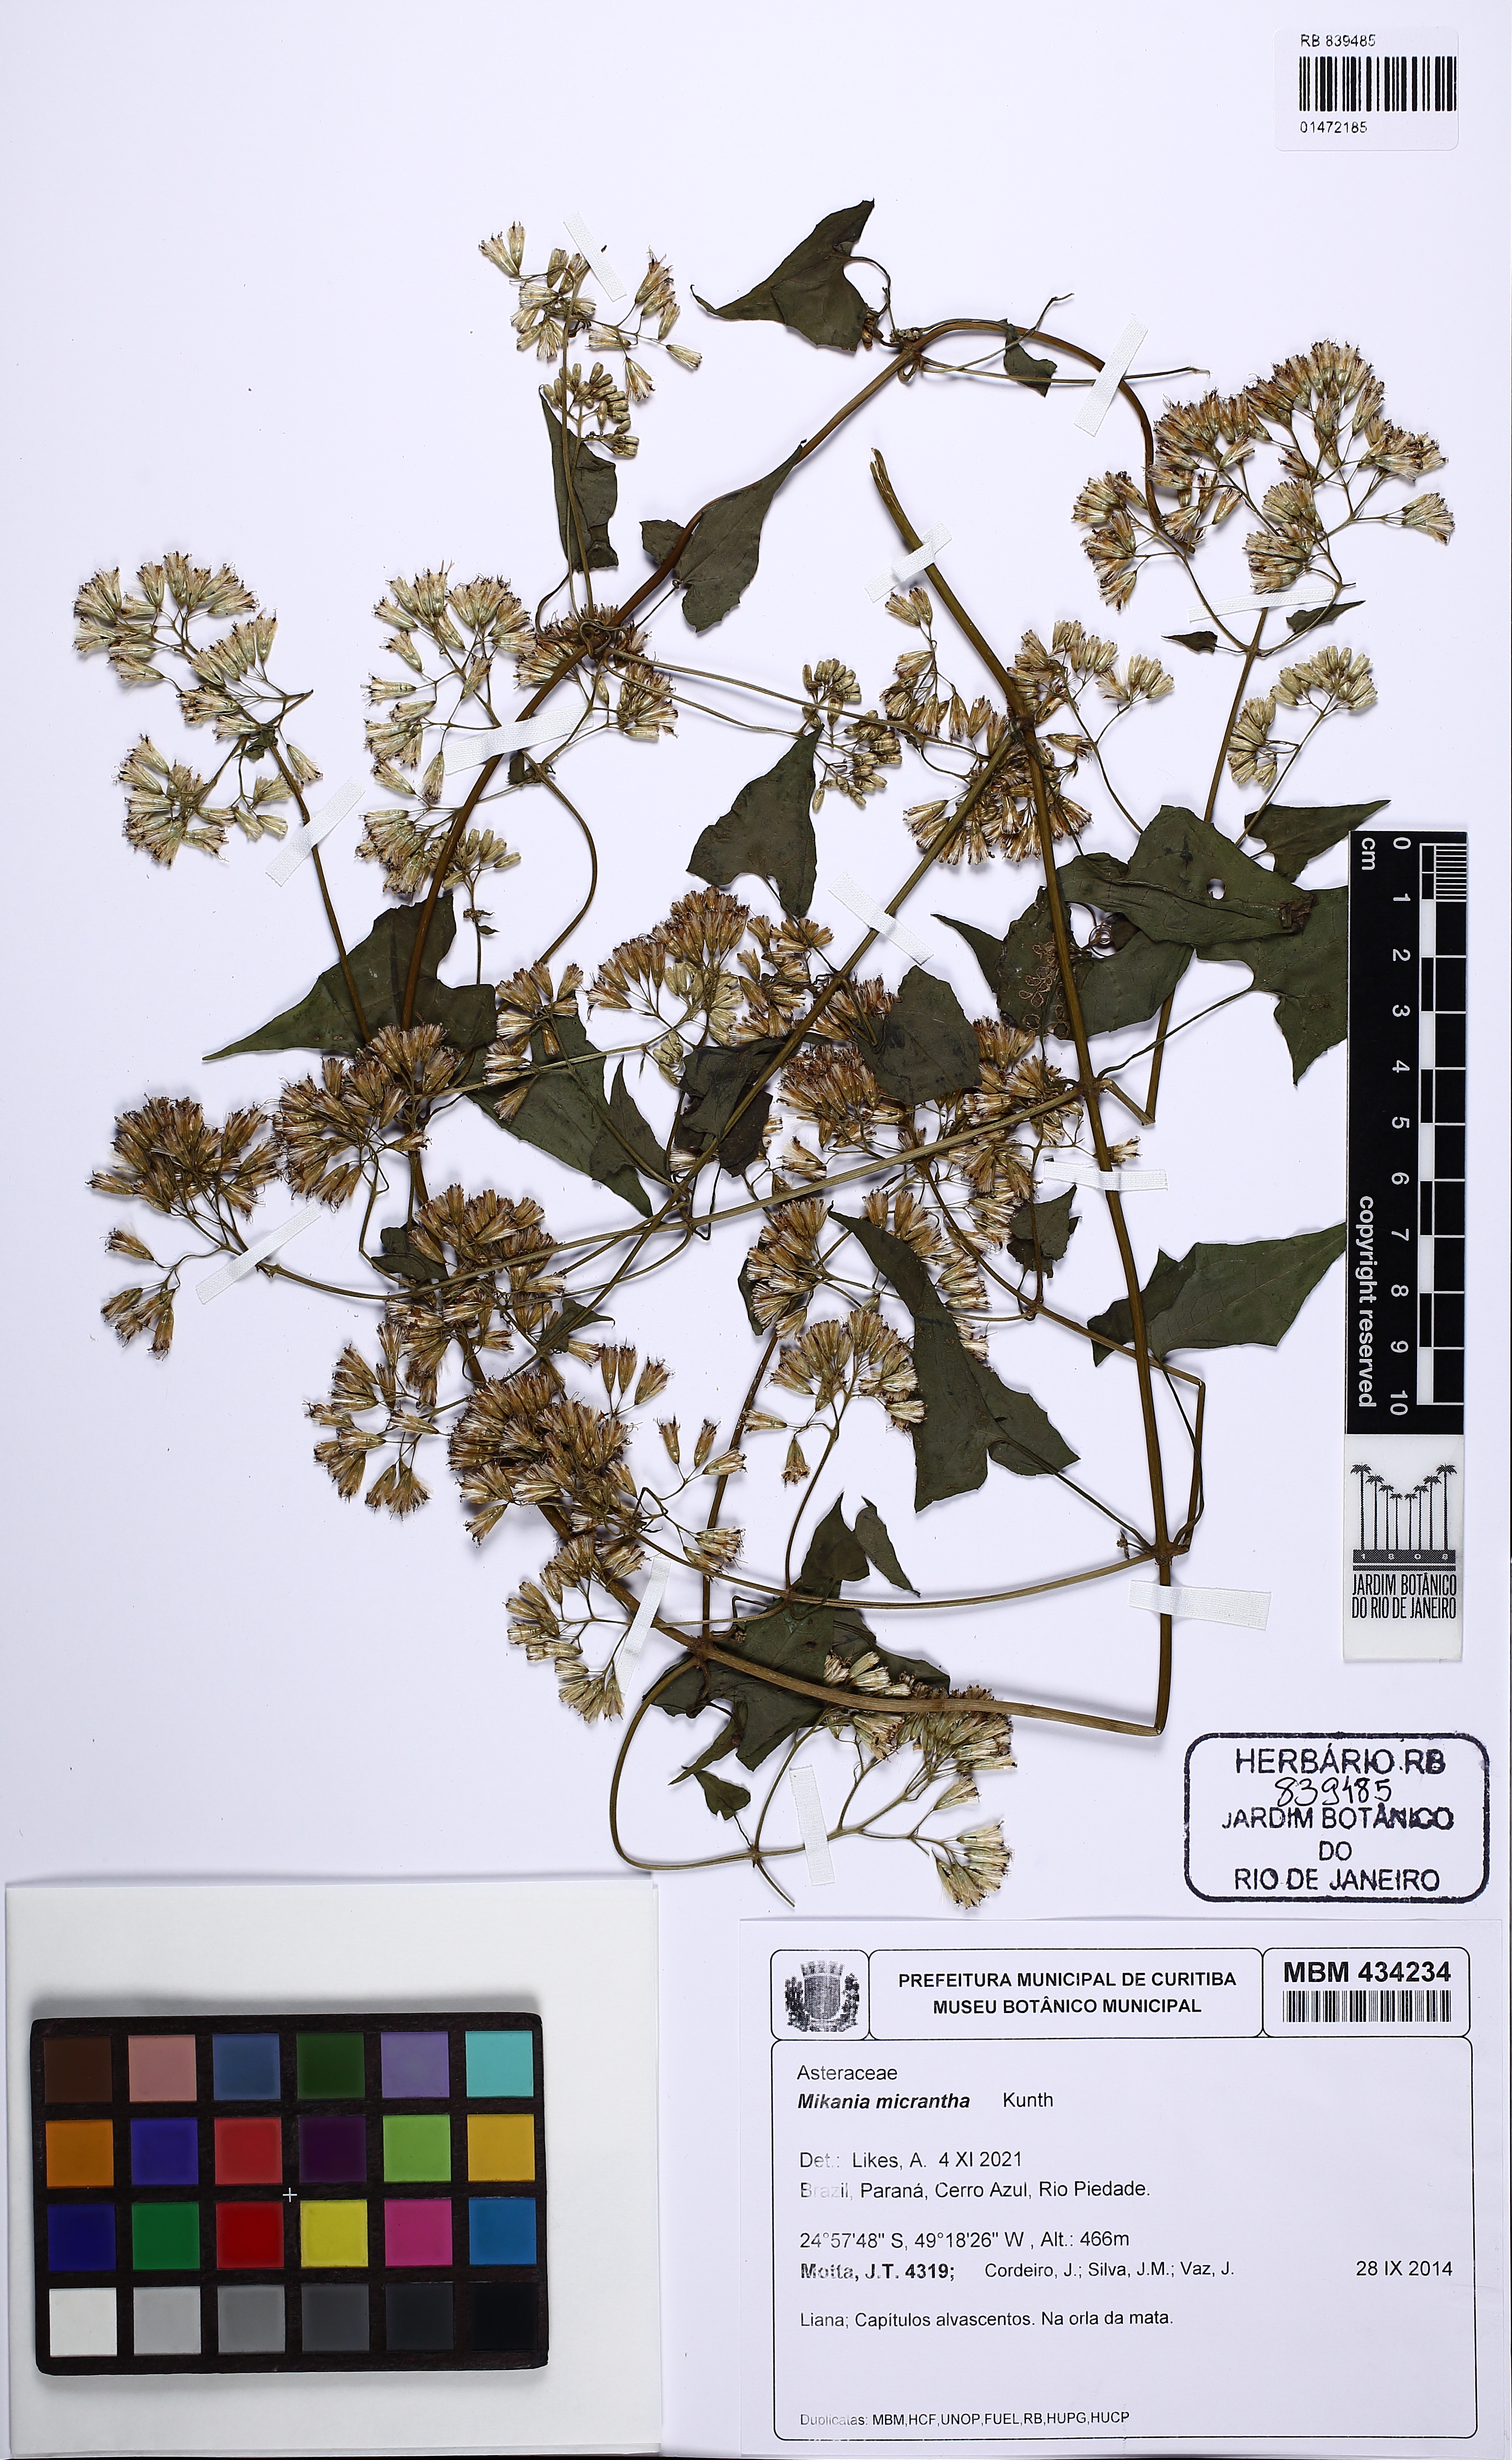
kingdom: Plantae
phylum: Tracheophyta
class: Magnoliopsida
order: Asterales
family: Asteraceae
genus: Mikania
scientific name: Mikania micrantha
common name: Mile-a-minute
